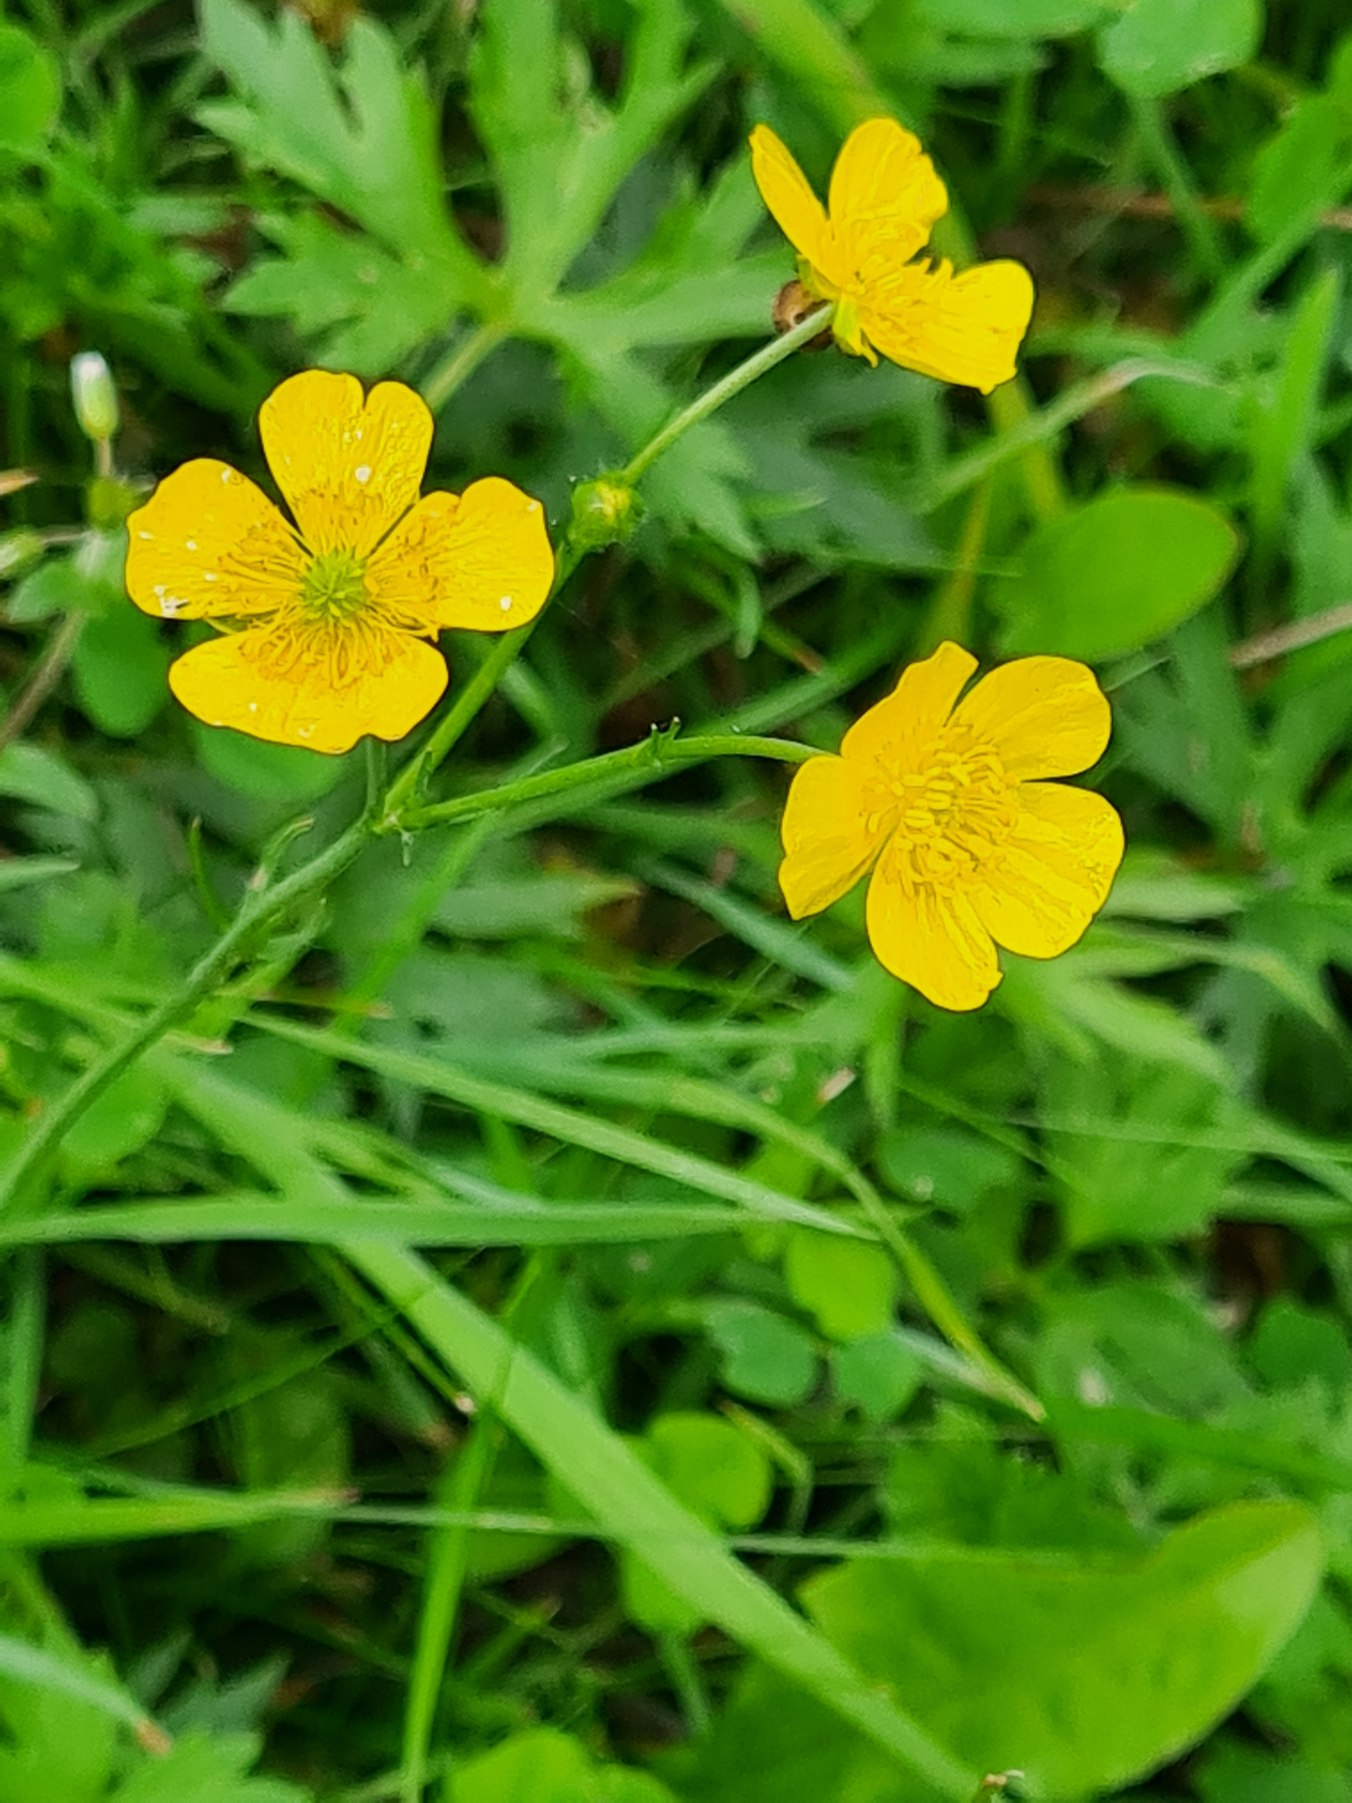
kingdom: Plantae
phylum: Tracheophyta
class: Magnoliopsida
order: Ranunculales
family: Ranunculaceae
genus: Ranunculus
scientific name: Ranunculus acris
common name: Bidende ranunkel
